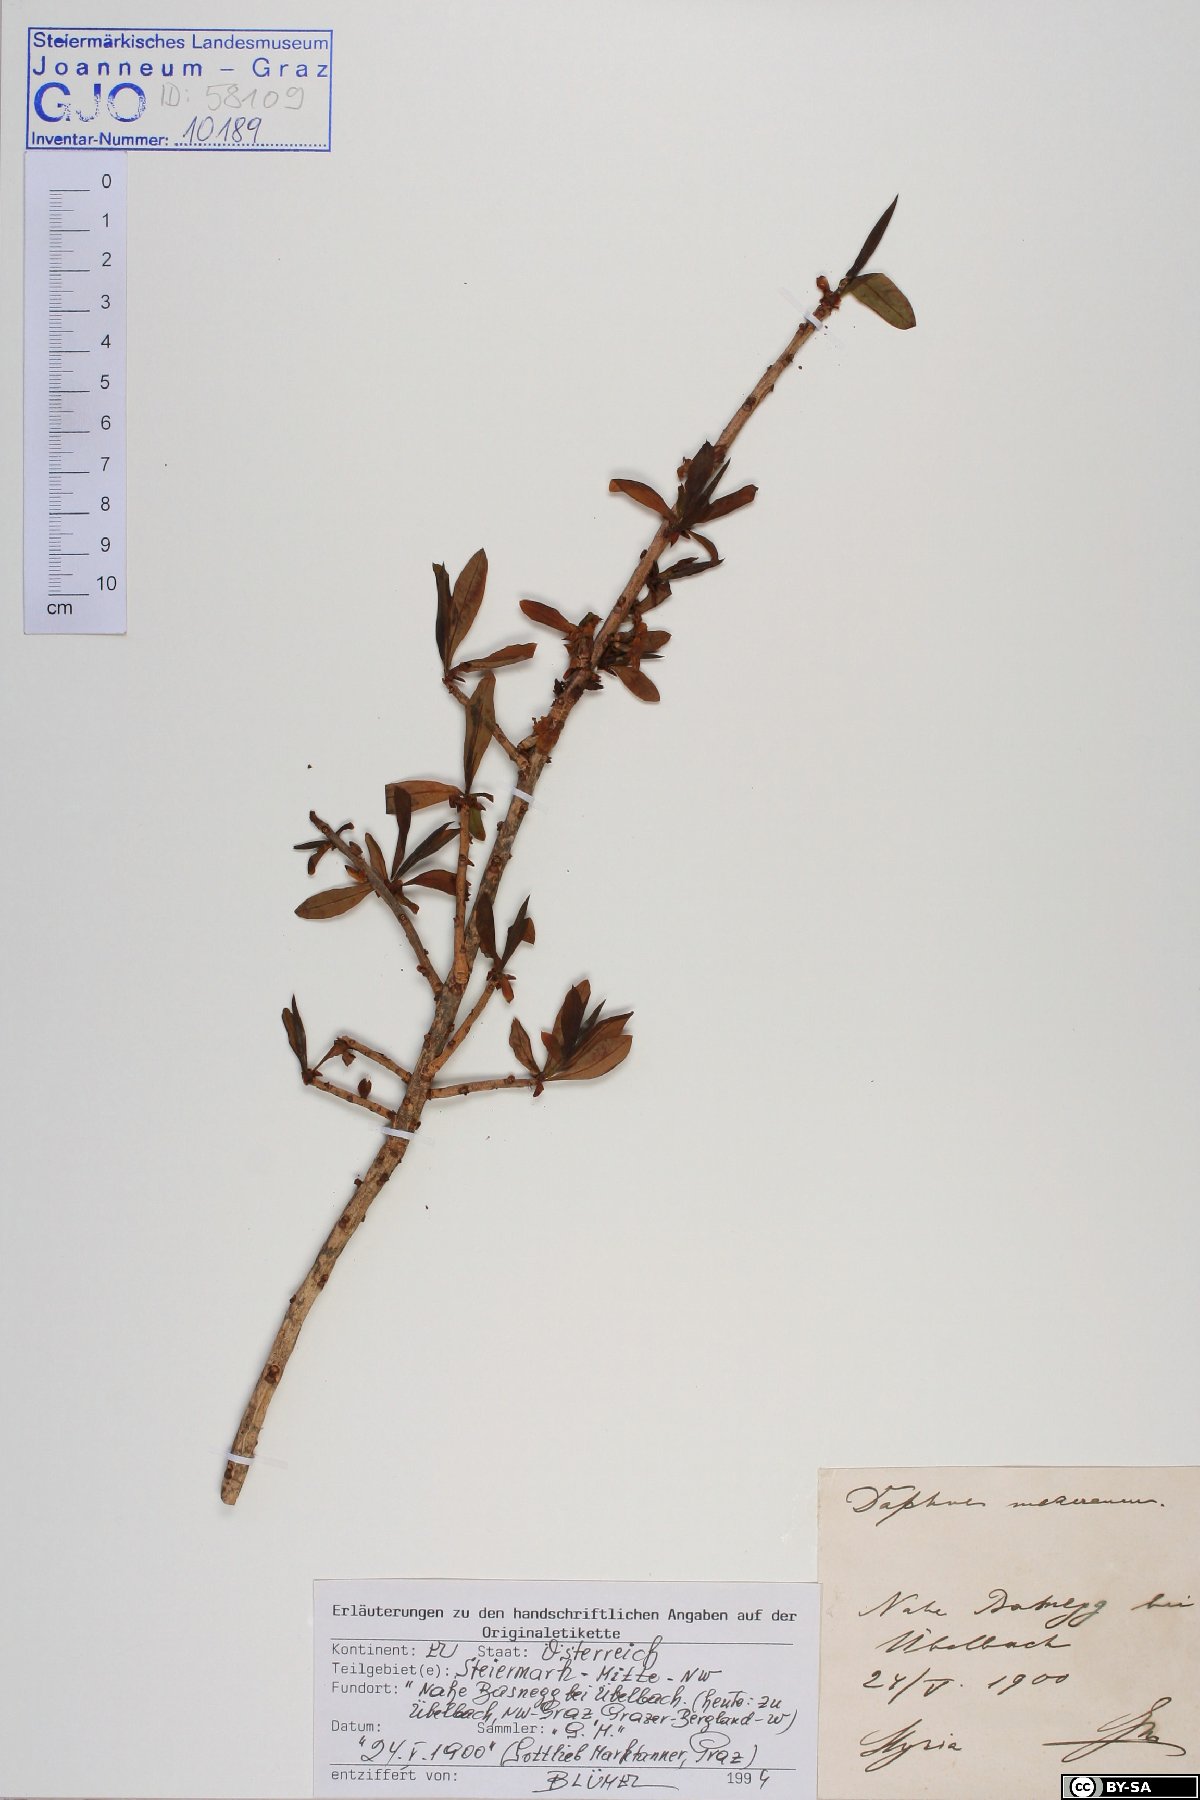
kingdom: Plantae
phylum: Tracheophyta
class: Magnoliopsida
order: Malvales
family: Thymelaeaceae
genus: Daphne
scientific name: Daphne mezereum
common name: Mezereon
